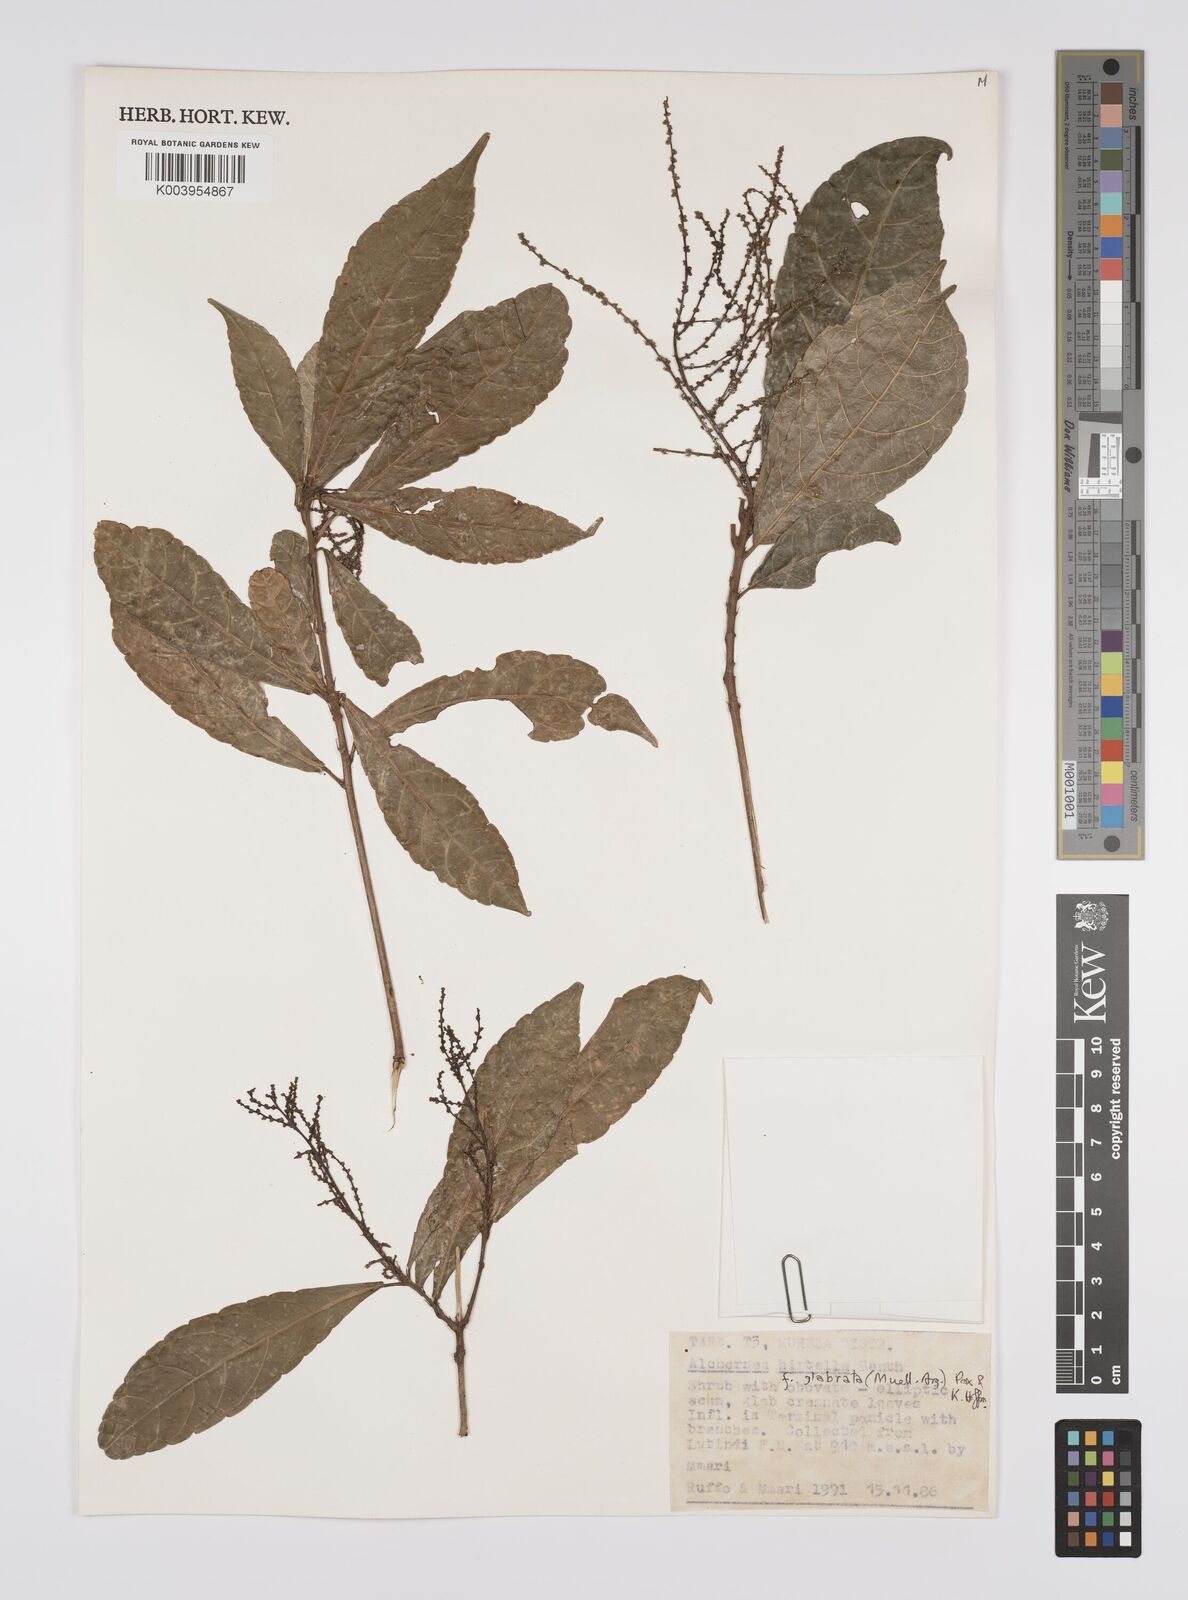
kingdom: Plantae
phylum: Tracheophyta
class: Magnoliopsida
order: Malpighiales
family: Euphorbiaceae
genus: Alchornea
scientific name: Alchornea hirtella
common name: Forest bead-string
